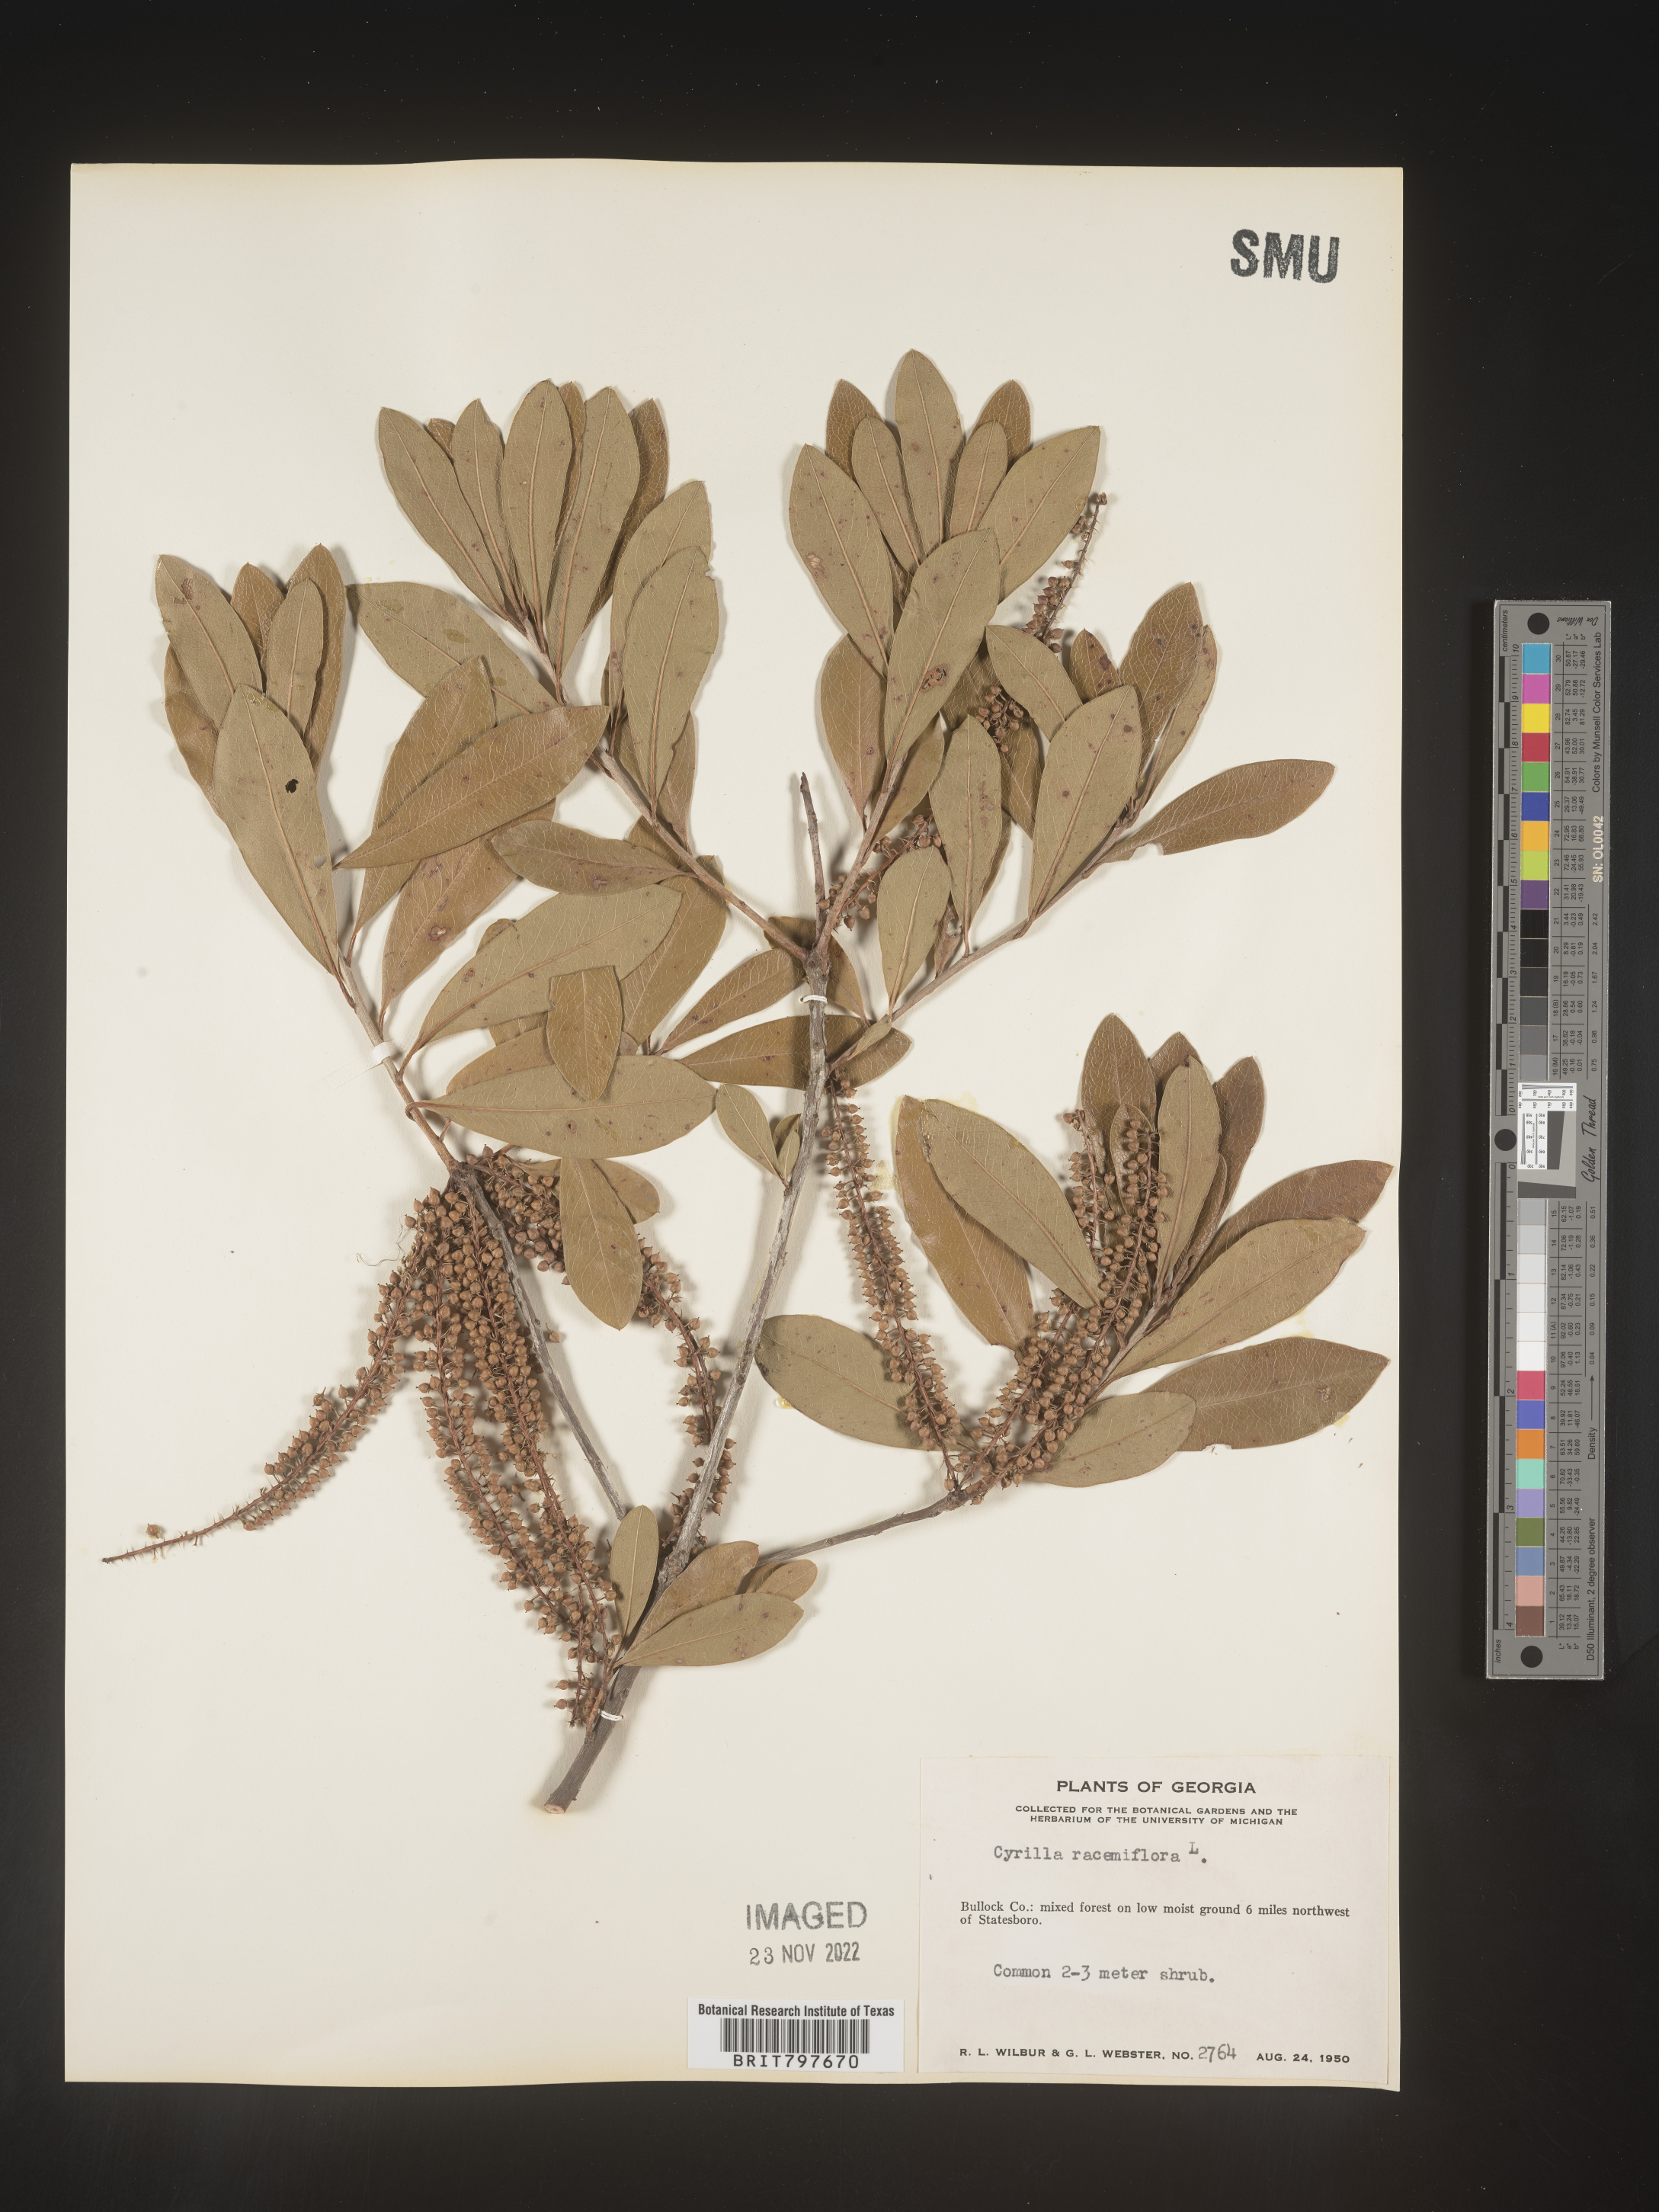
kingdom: Plantae
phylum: Tracheophyta
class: Magnoliopsida
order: Ericales
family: Cyrillaceae
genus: Cyrilla
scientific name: Cyrilla racemiflora
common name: Black titi
